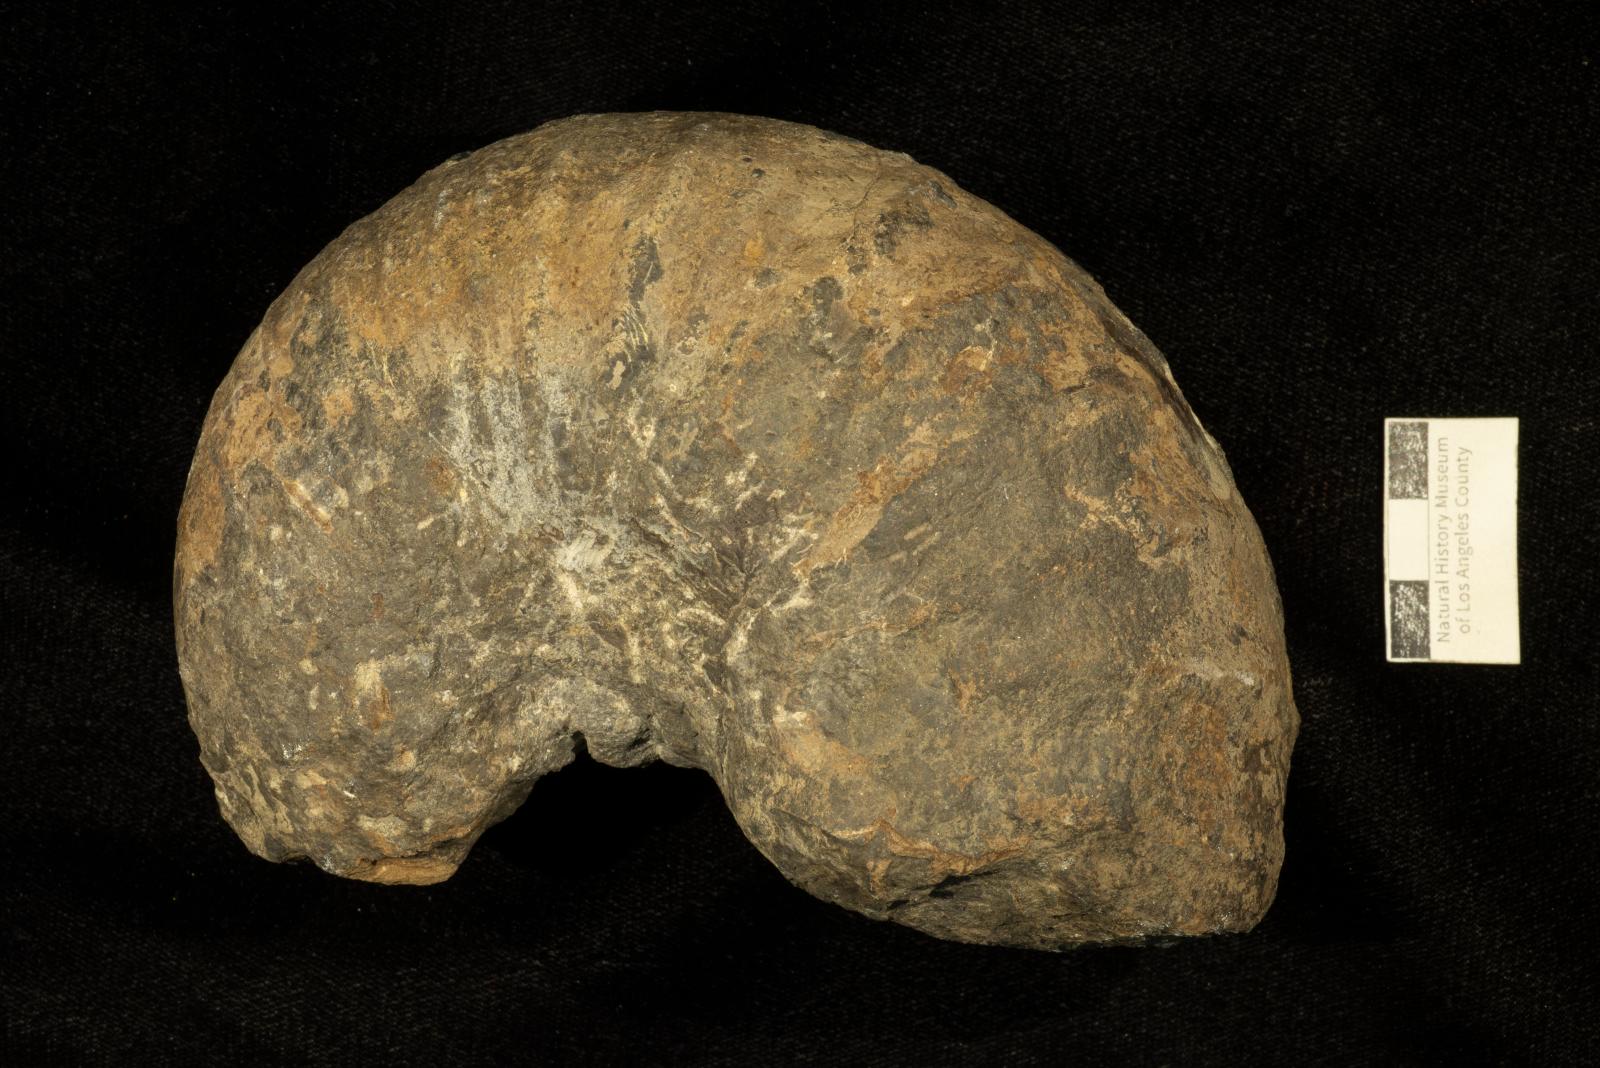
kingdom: Animalia
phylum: Mollusca
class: Cephalopoda
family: Pachydiscidae
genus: Menuites
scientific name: Menuites
